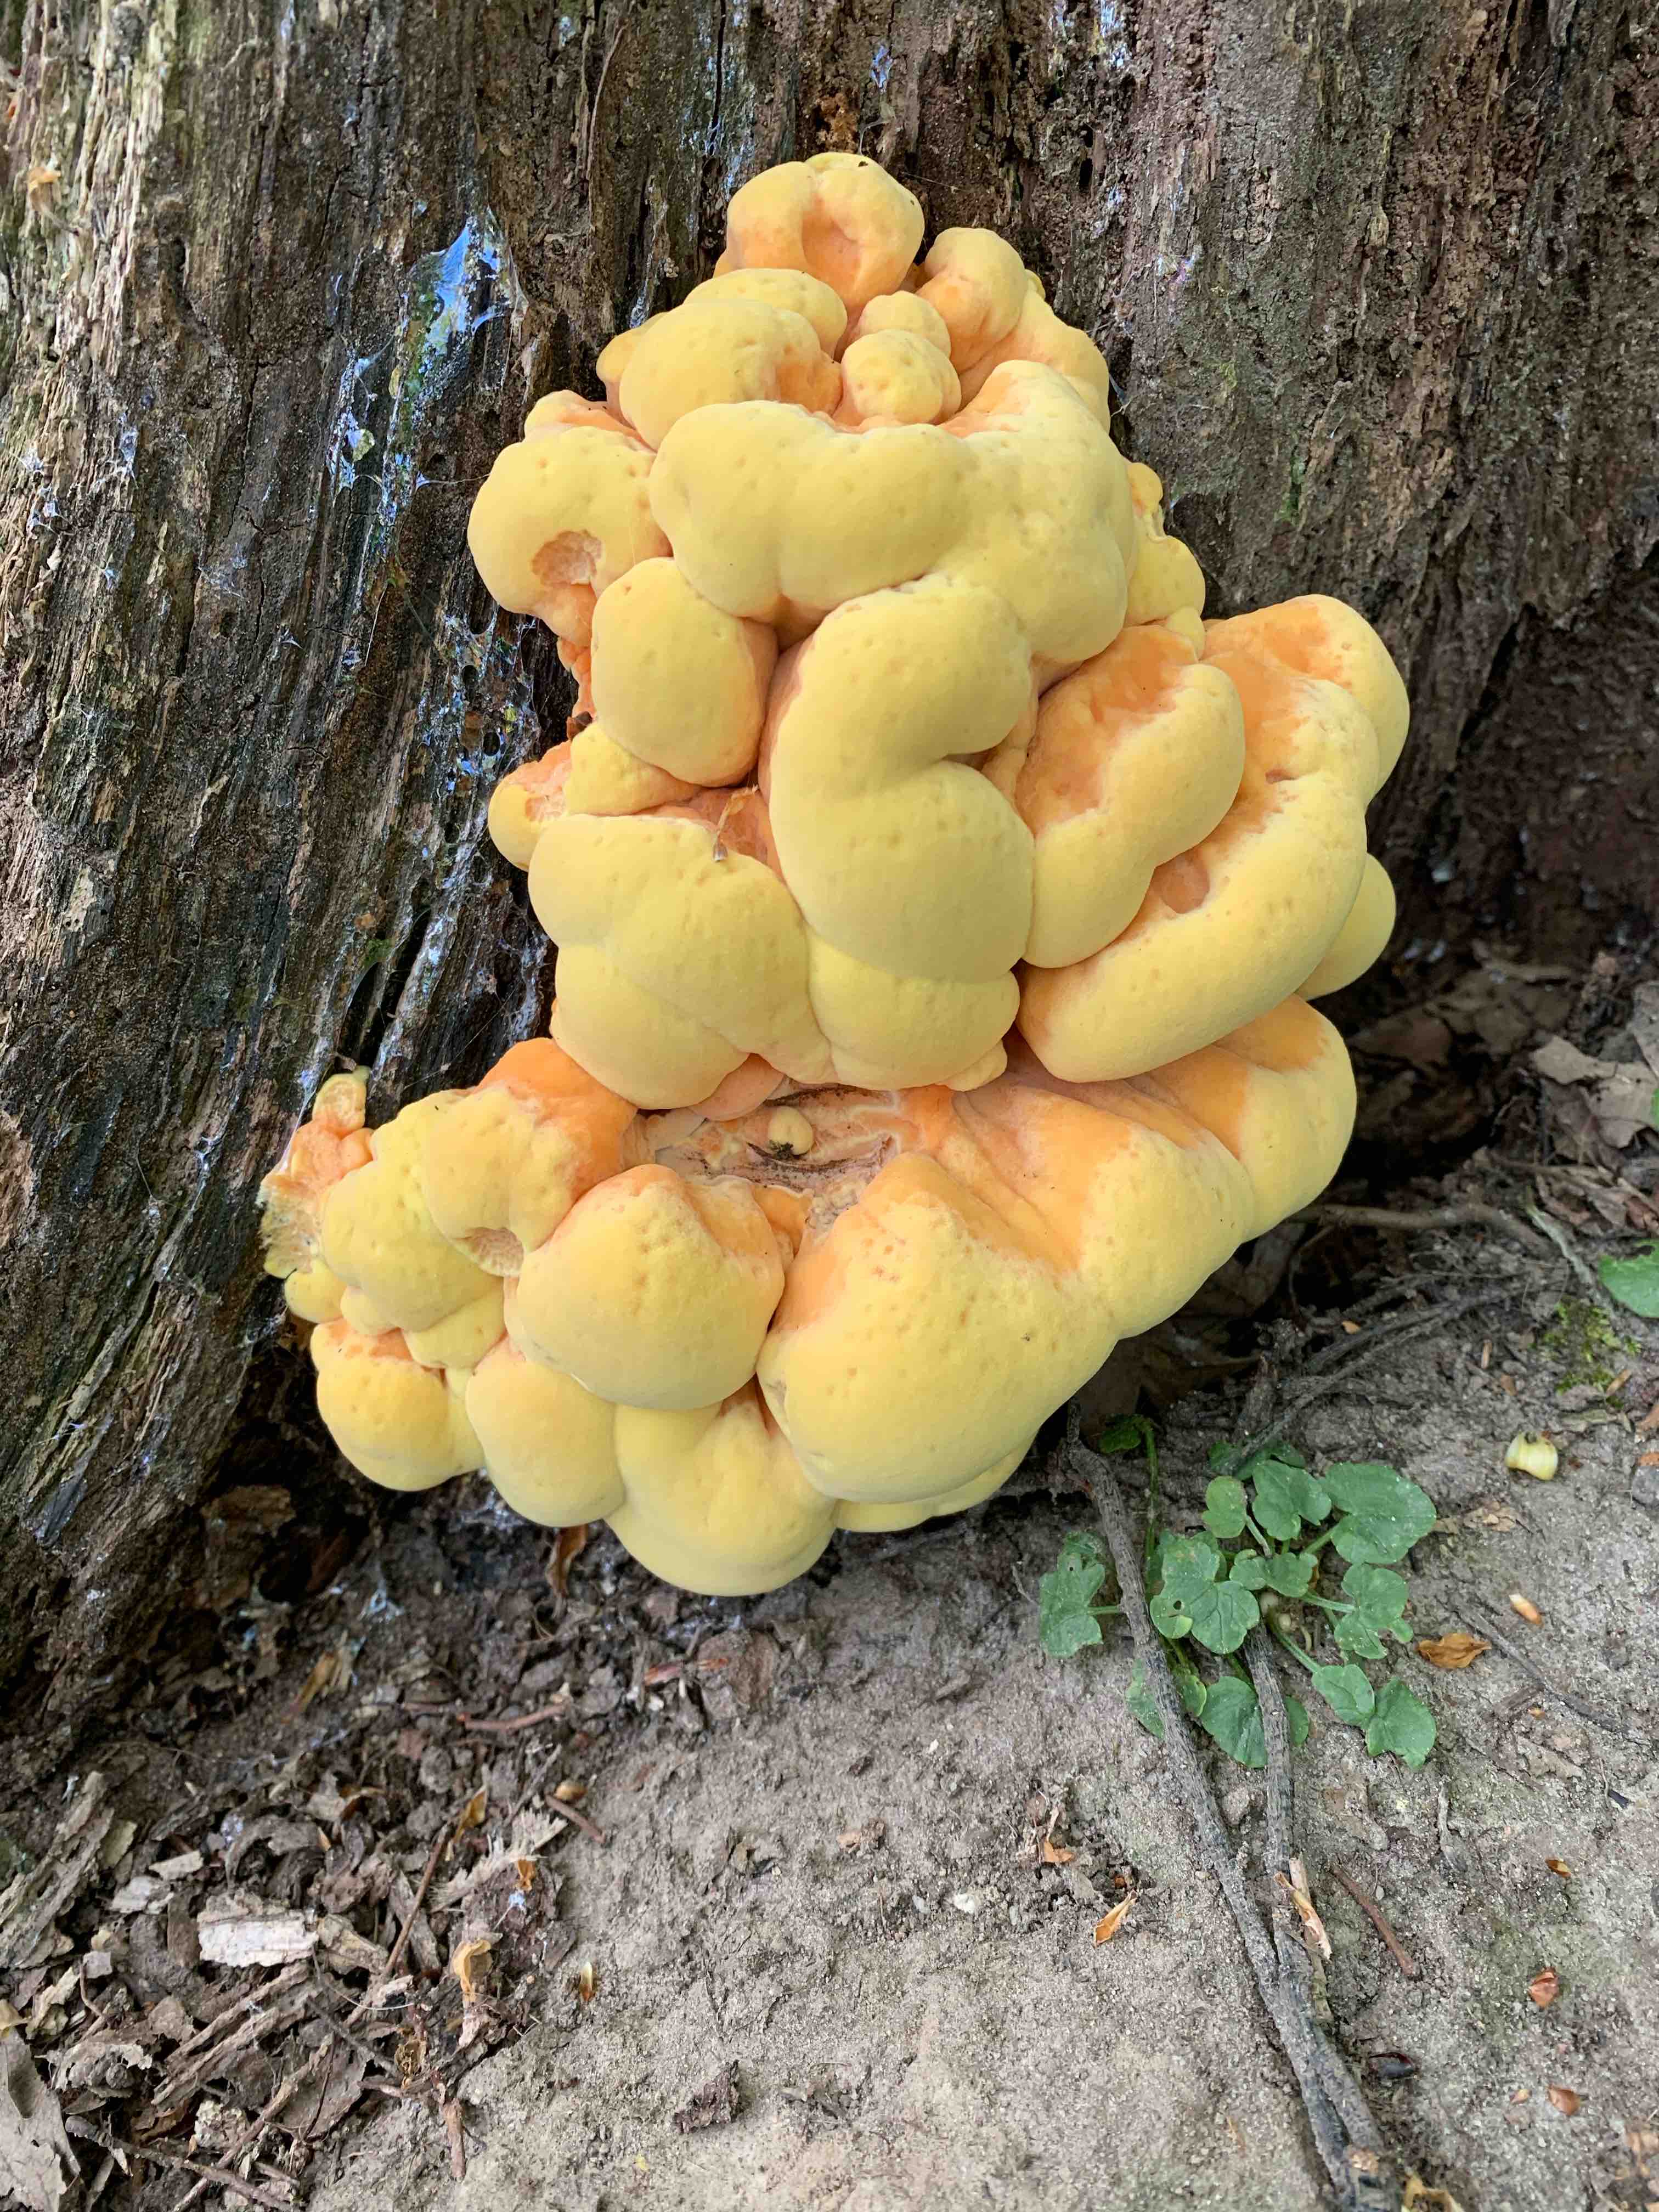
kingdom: Fungi
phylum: Basidiomycota
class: Agaricomycetes
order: Polyporales
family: Laetiporaceae
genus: Laetiporus
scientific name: Laetiporus sulphureus
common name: svovlporesvamp
